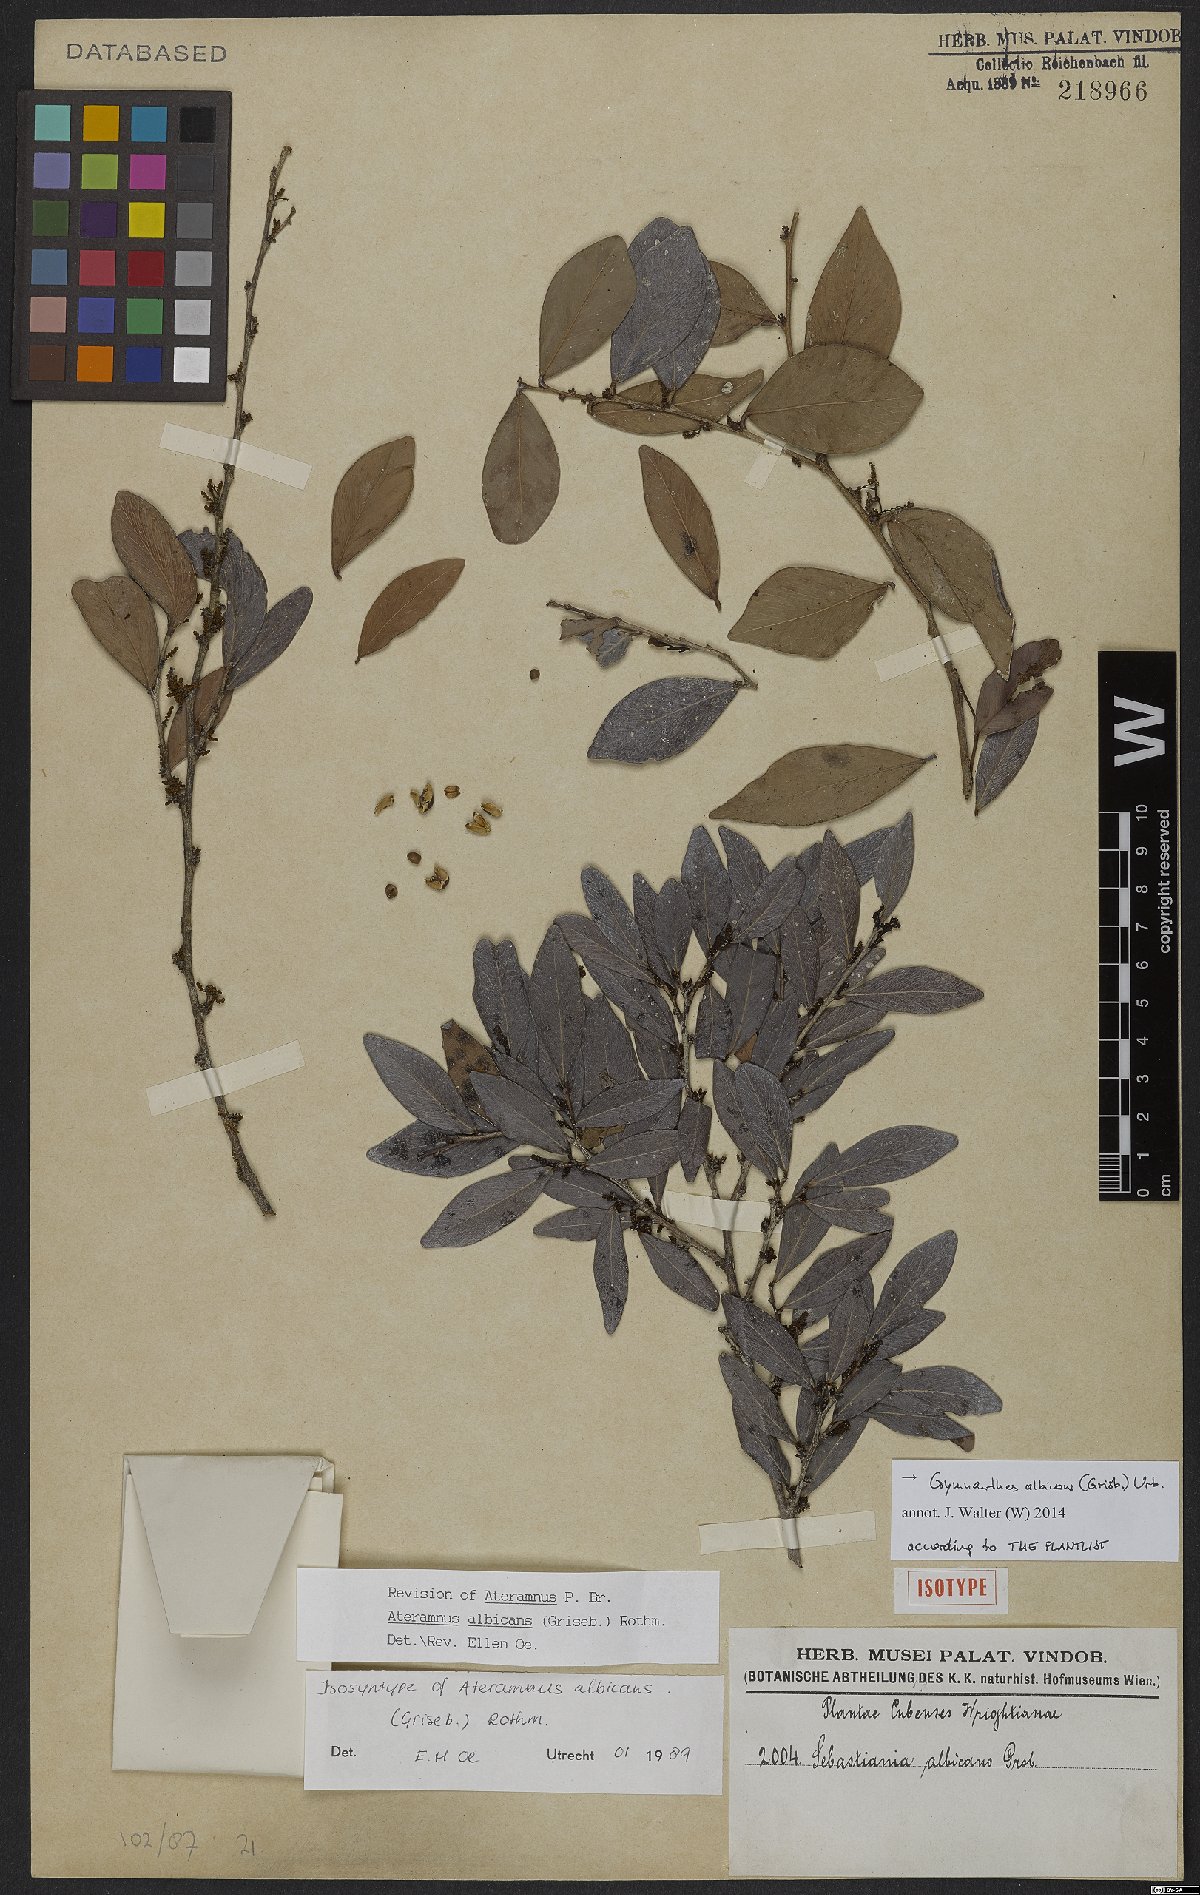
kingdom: Plantae
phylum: Tracheophyta
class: Magnoliopsida
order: Malpighiales
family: Euphorbiaceae
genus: Gymnanthes
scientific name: Gymnanthes albicans
